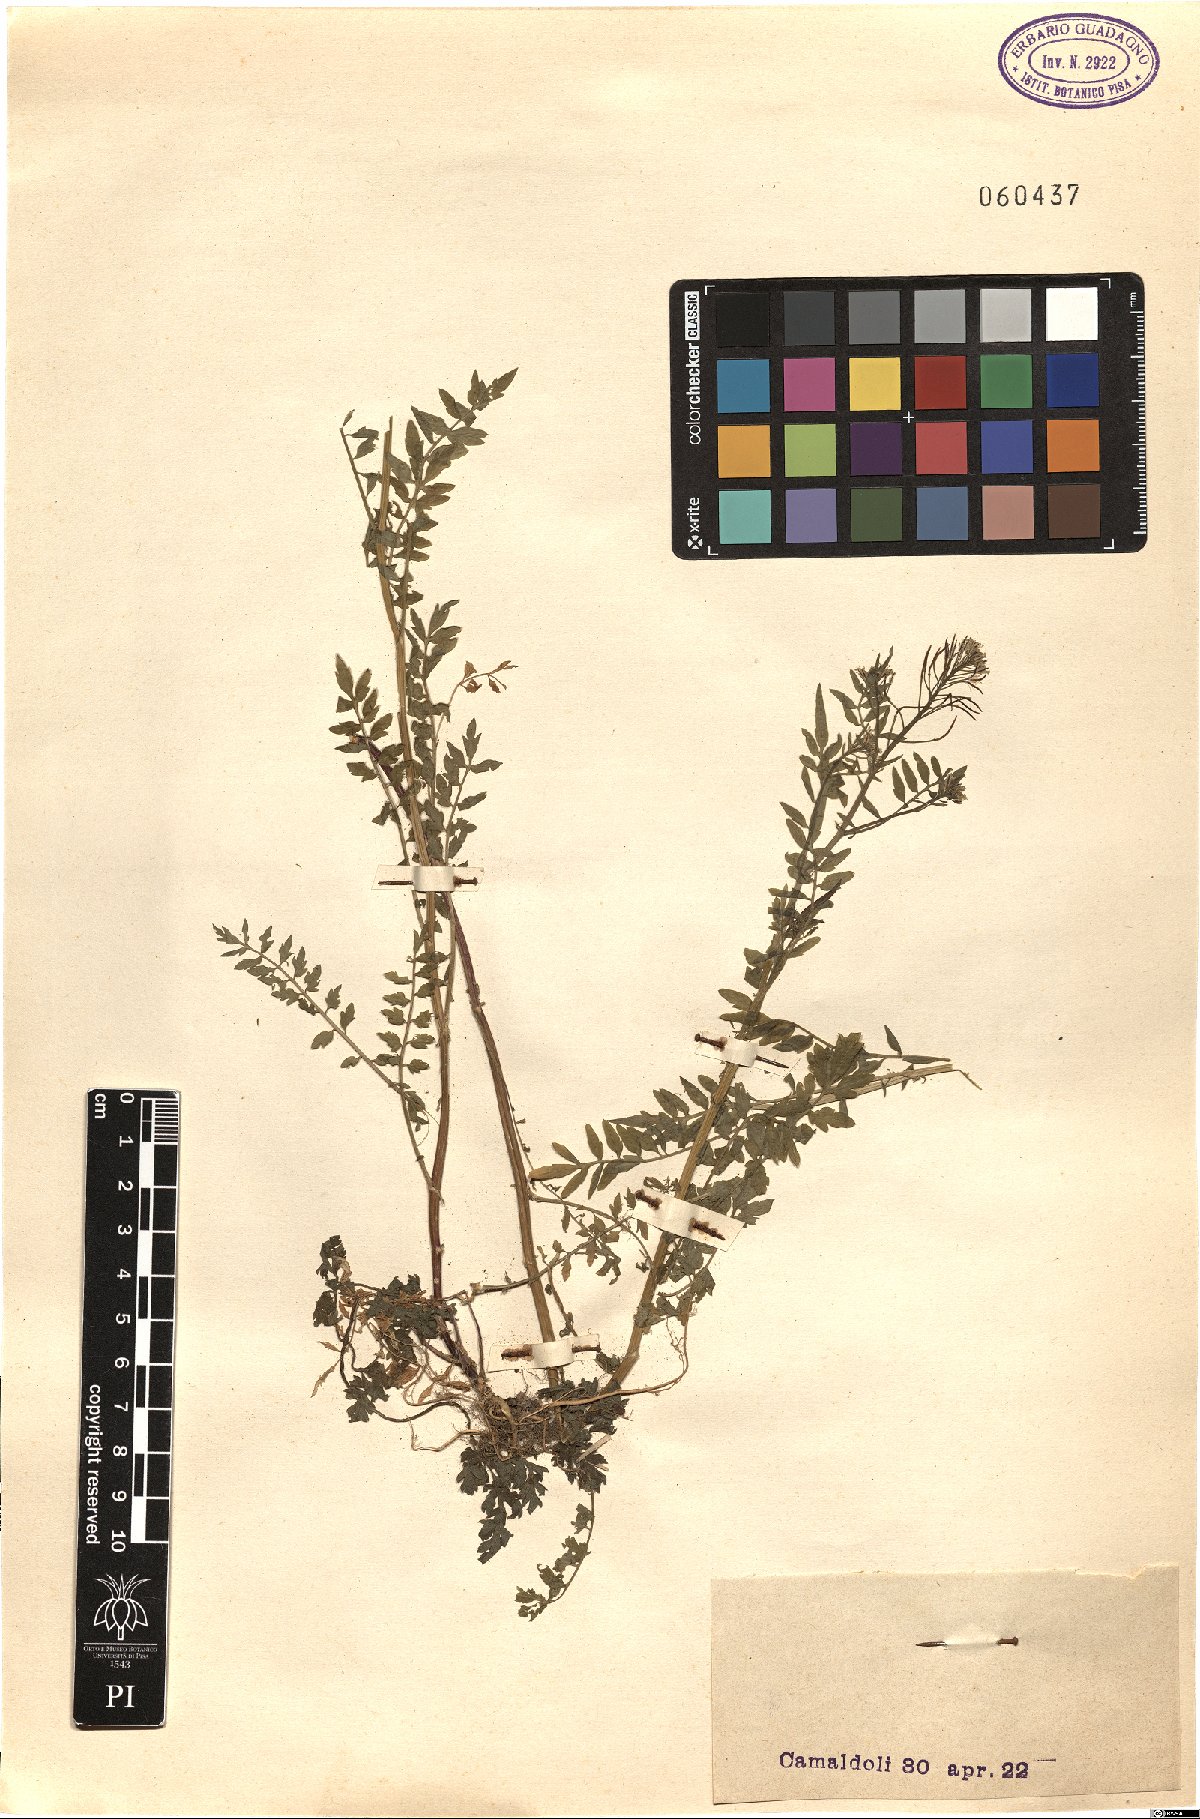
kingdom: Plantae
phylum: Tracheophyta
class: Magnoliopsida
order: Brassicales
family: Brassicaceae
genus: Cardamine
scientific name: Cardamine impatiens
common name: Narrow-leaved bitter-cress
